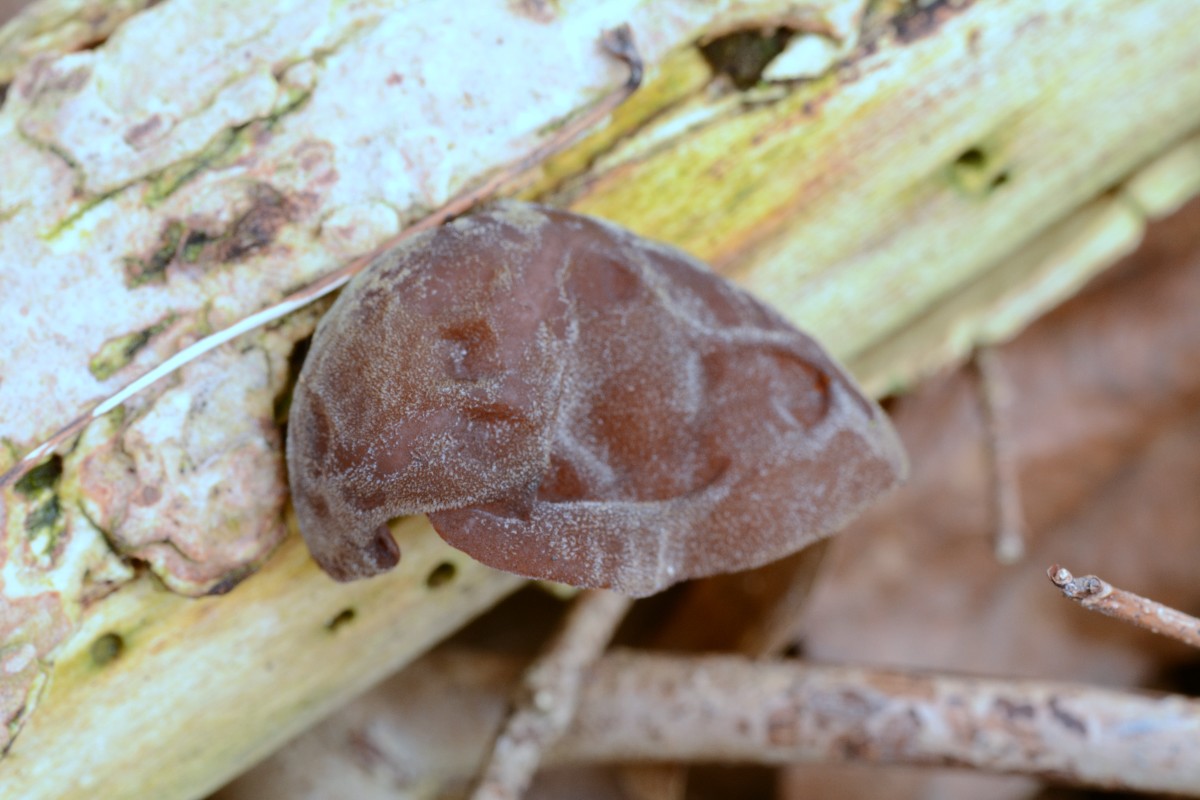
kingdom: Fungi
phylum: Basidiomycota
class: Agaricomycetes
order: Auriculariales
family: Auriculariaceae
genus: Auricularia
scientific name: Auricularia auricula-judae
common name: almindelig judasøre
